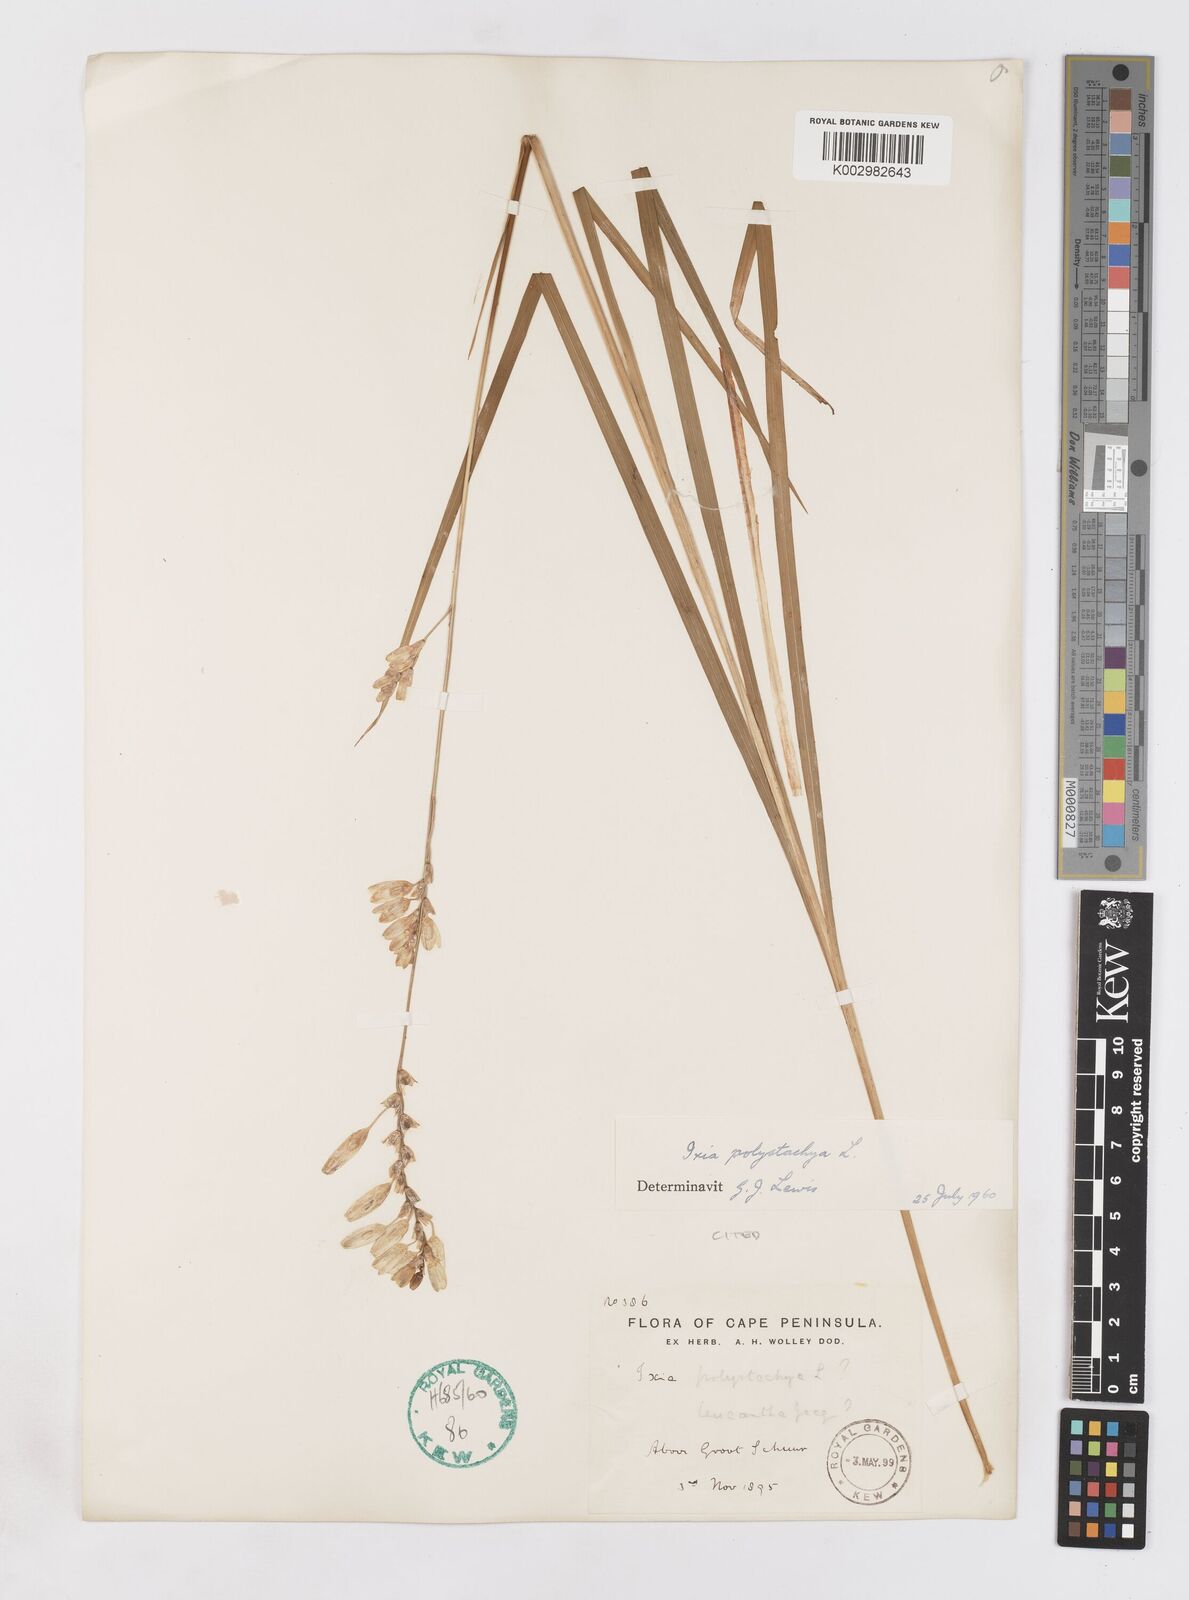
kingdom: Plantae
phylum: Tracheophyta
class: Liliopsida
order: Asparagales
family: Iridaceae
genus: Ixia
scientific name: Ixia polystachya
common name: White-and-yellow-flower cornlily
